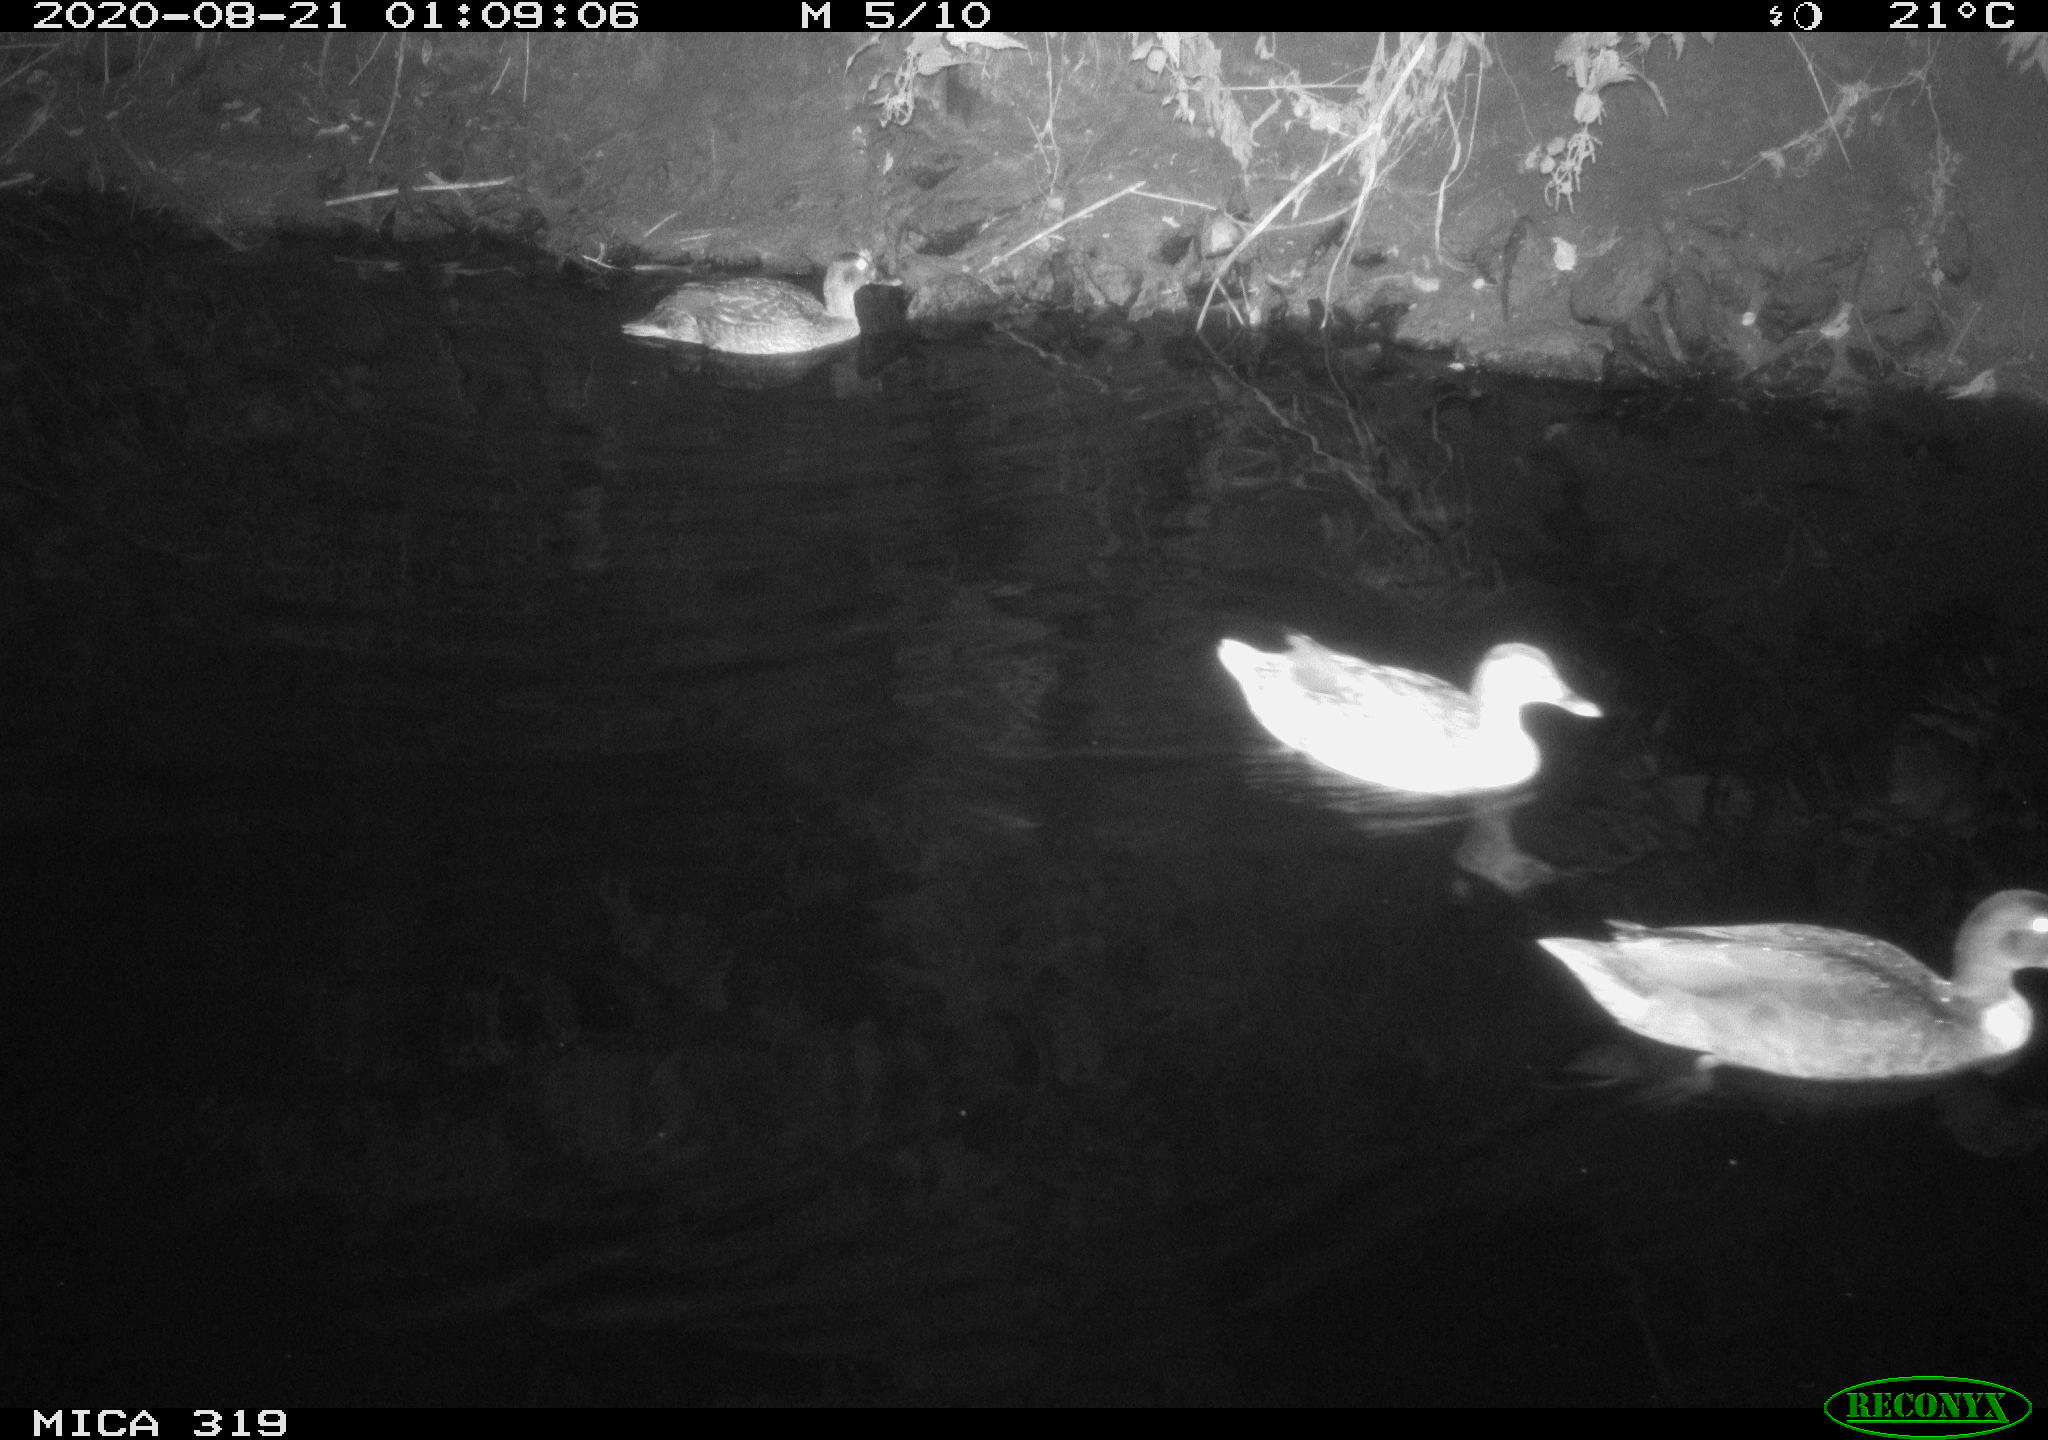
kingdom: Animalia
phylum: Chordata
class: Aves
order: Anseriformes
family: Anatidae
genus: Anas
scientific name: Anas platyrhynchos
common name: Mallard
